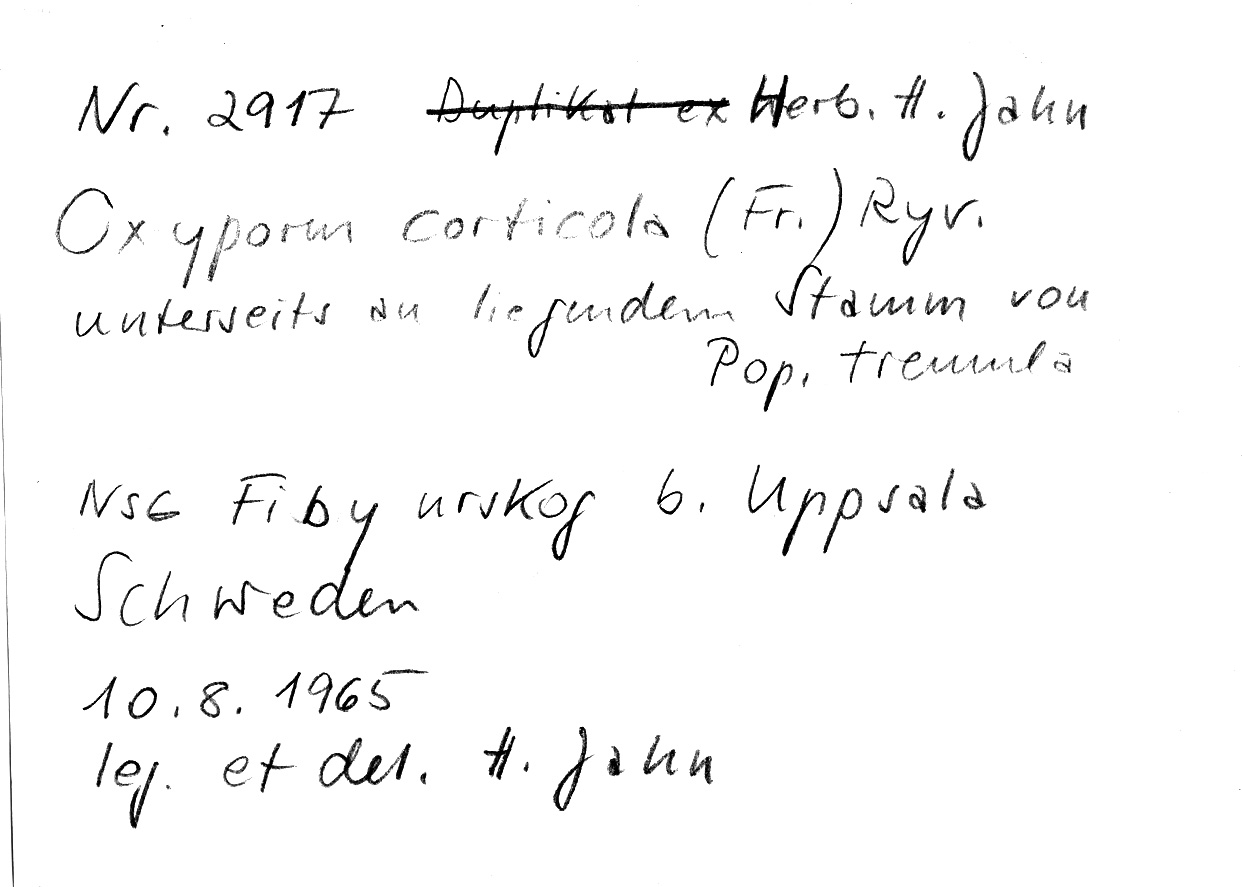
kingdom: Plantae
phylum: Tracheophyta
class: Magnoliopsida
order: Malpighiales
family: Salicaceae
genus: Populus
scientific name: Populus tremula
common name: European aspen
